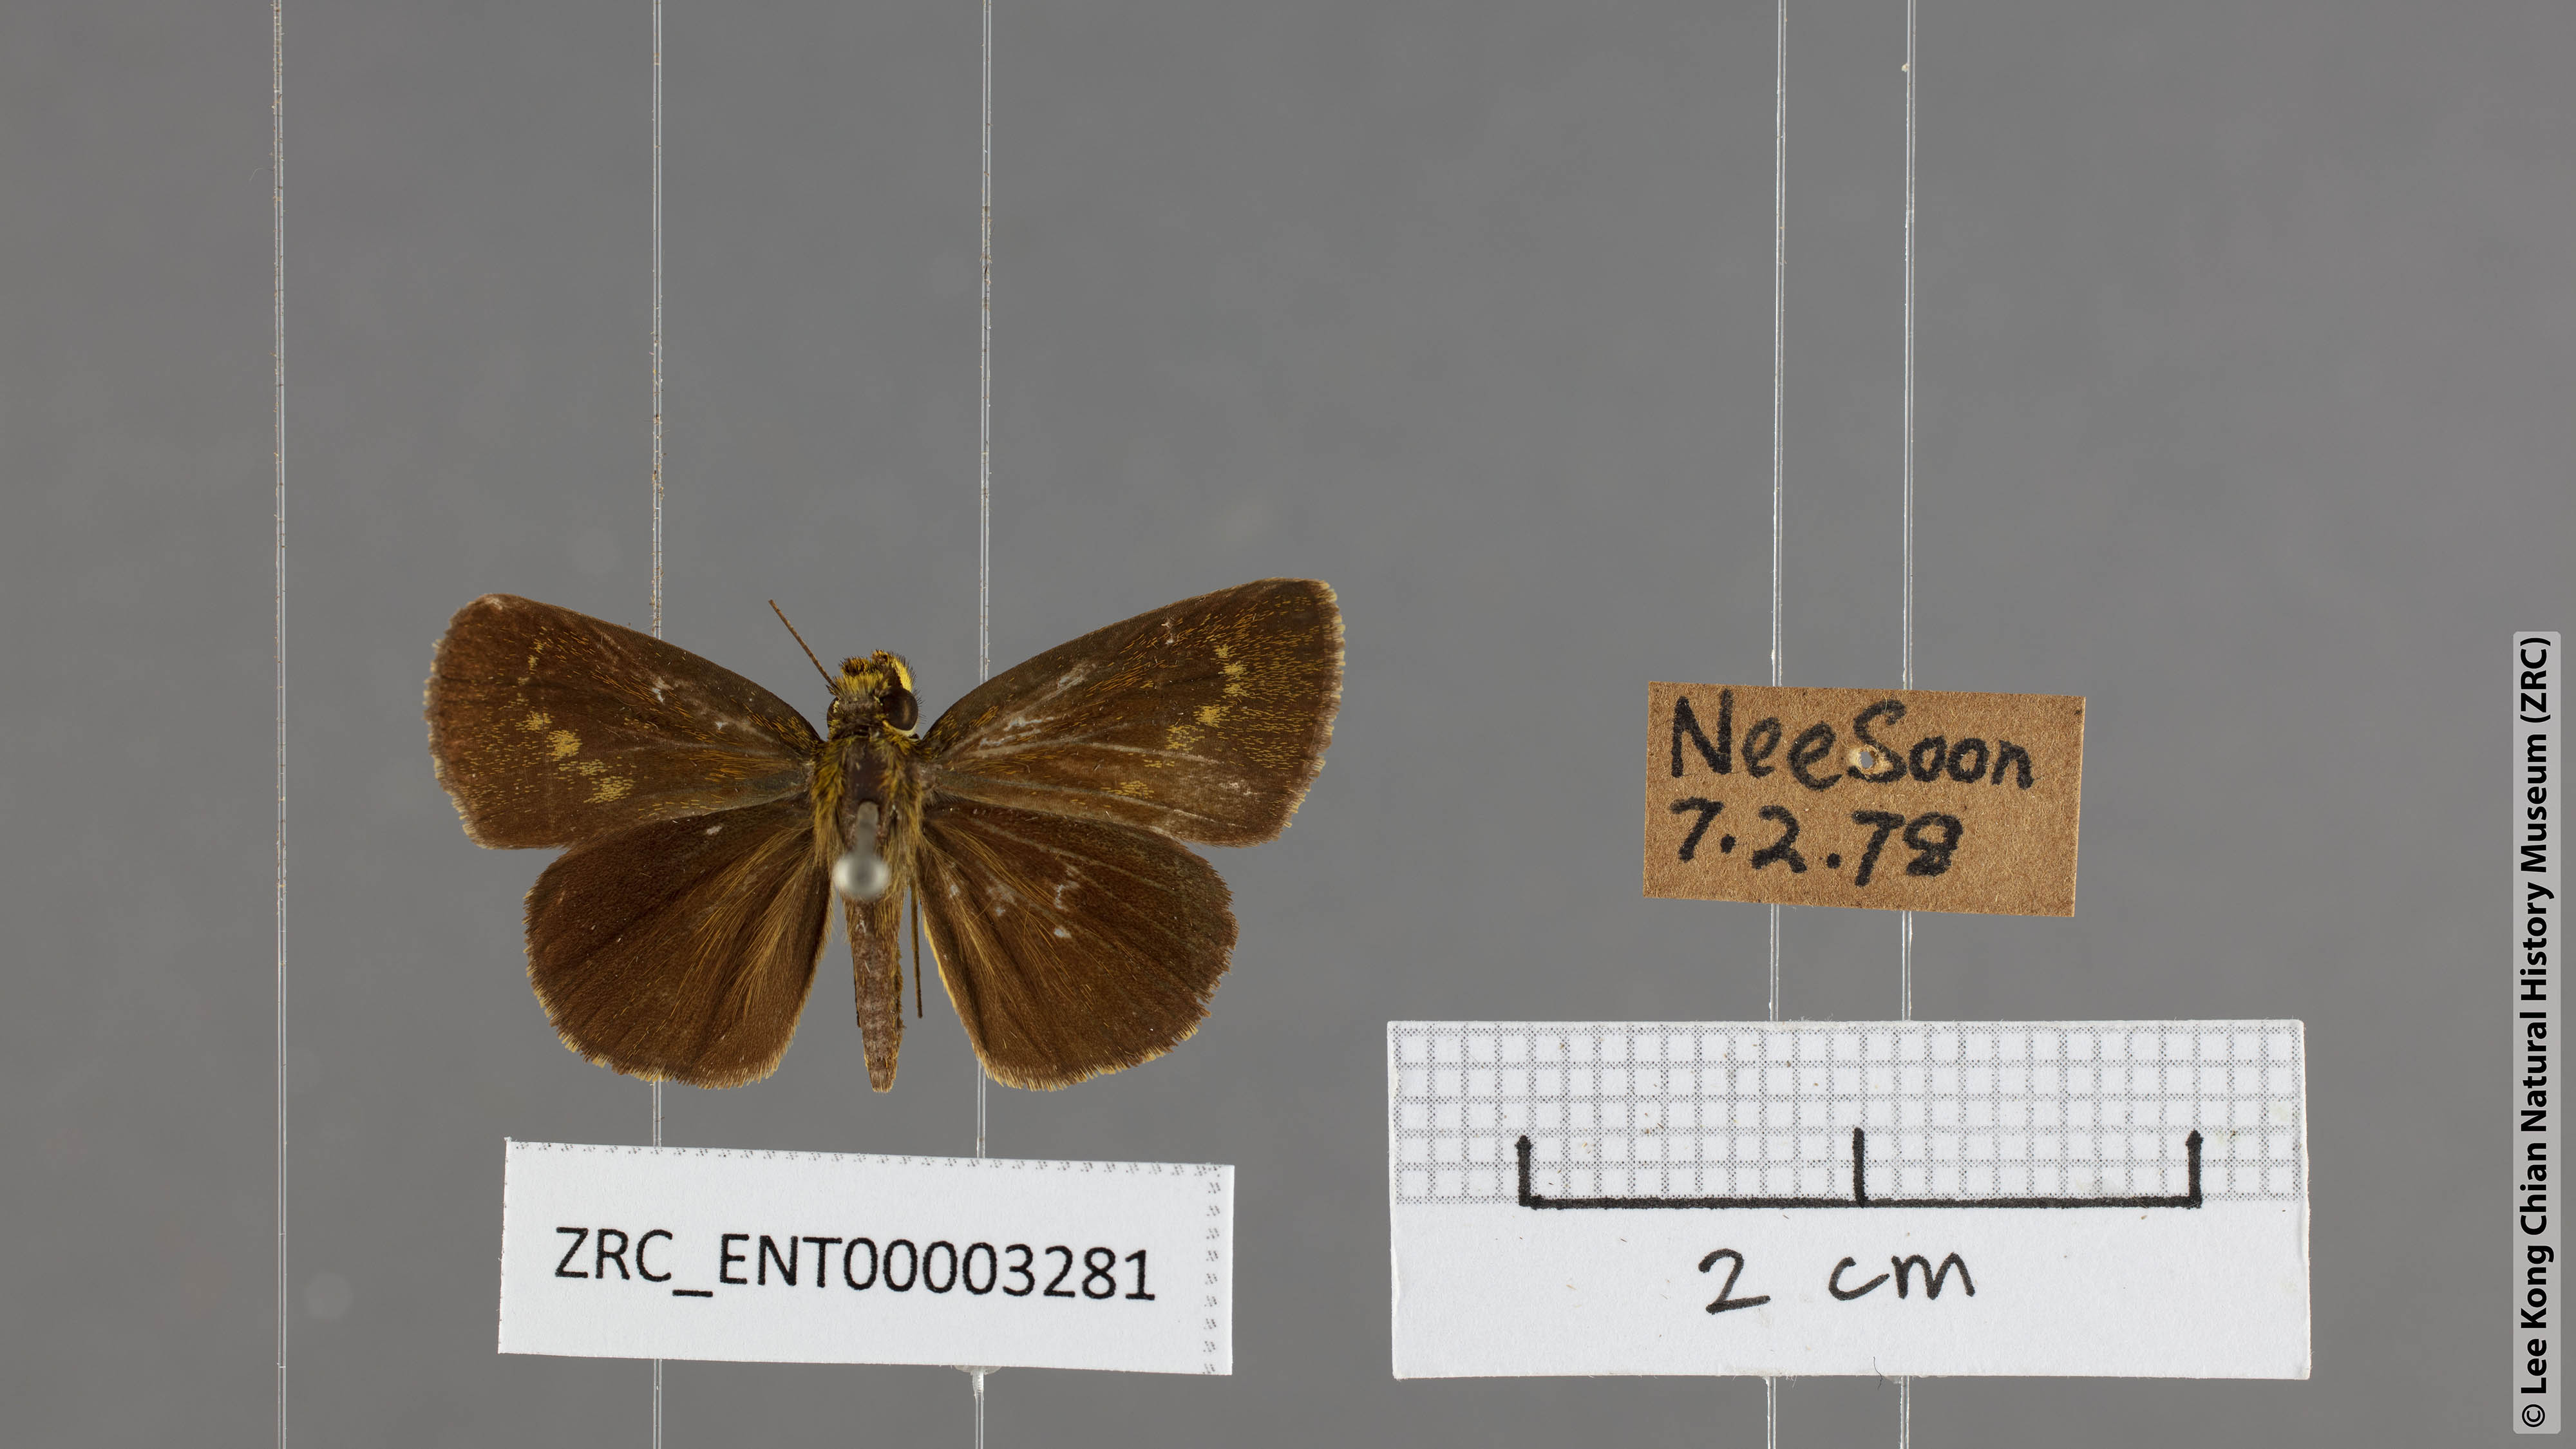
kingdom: Animalia
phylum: Arthropoda
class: Insecta
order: Lepidoptera
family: Hesperiidae
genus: Iambrix
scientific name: Iambrix salsala
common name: Chestnut bob
